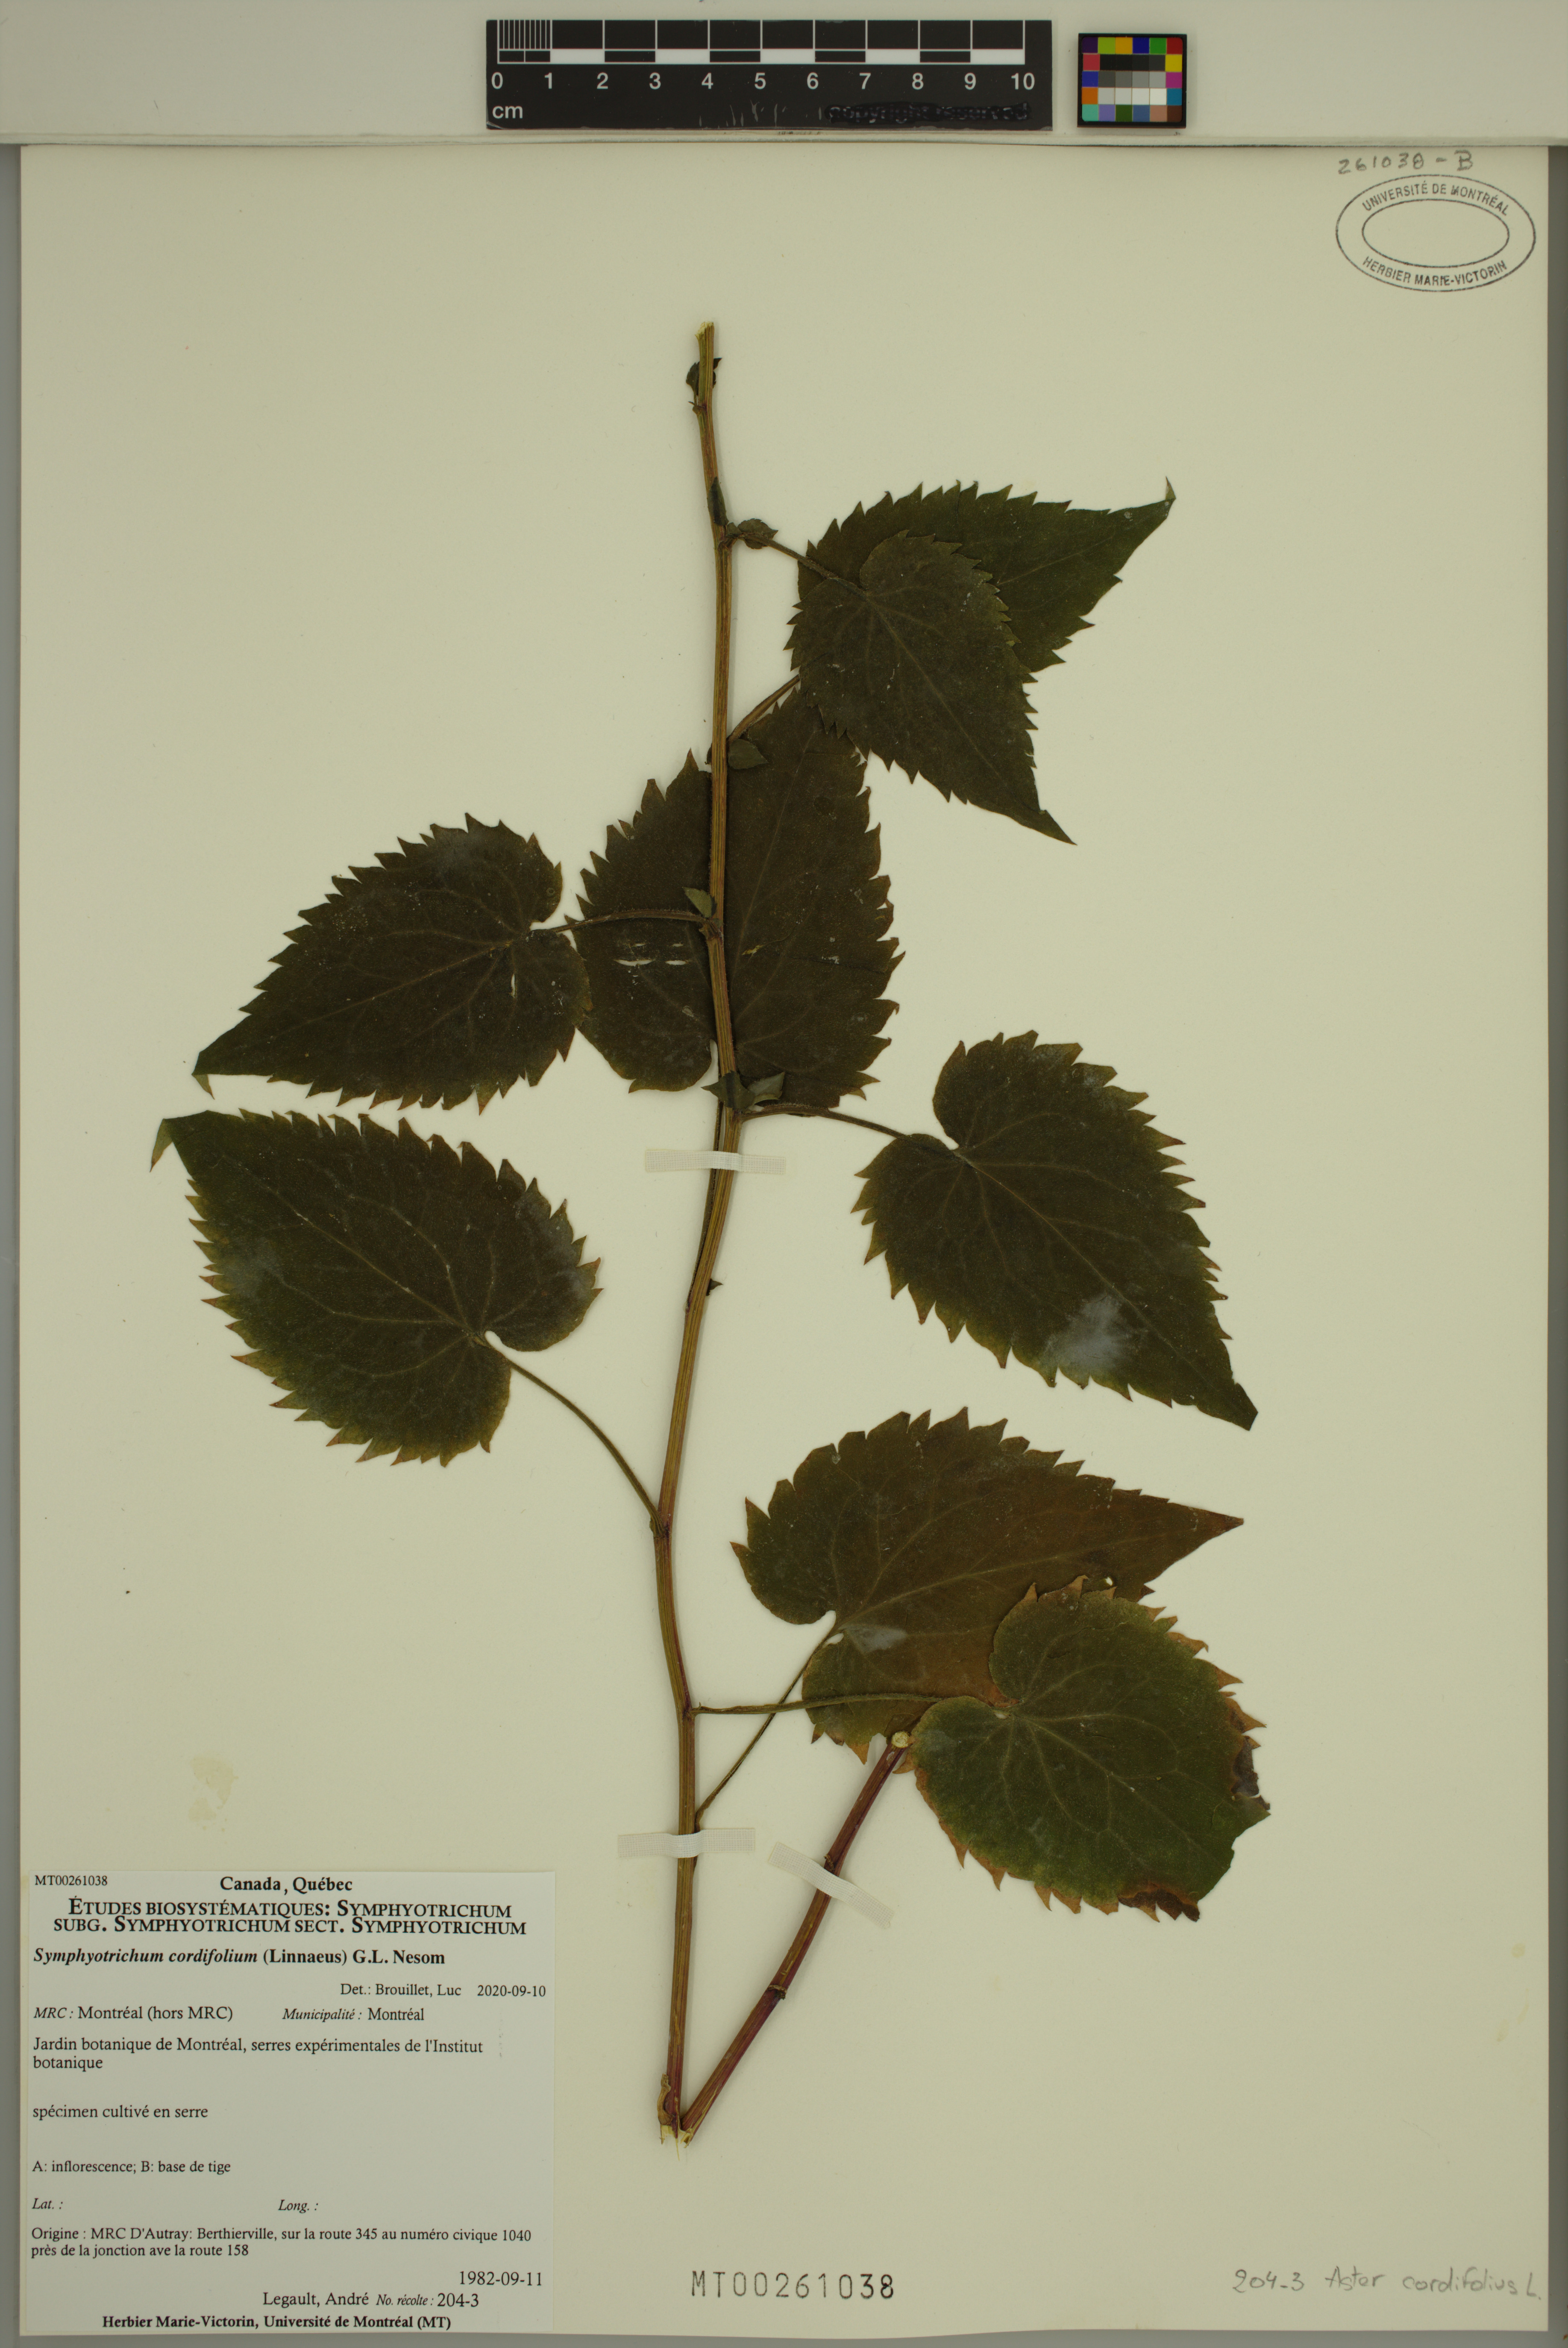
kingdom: Plantae
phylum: Tracheophyta
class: Magnoliopsida
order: Asterales
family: Asteraceae
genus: Symphyotrichum
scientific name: Symphyotrichum cordifolium
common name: Beeweed
